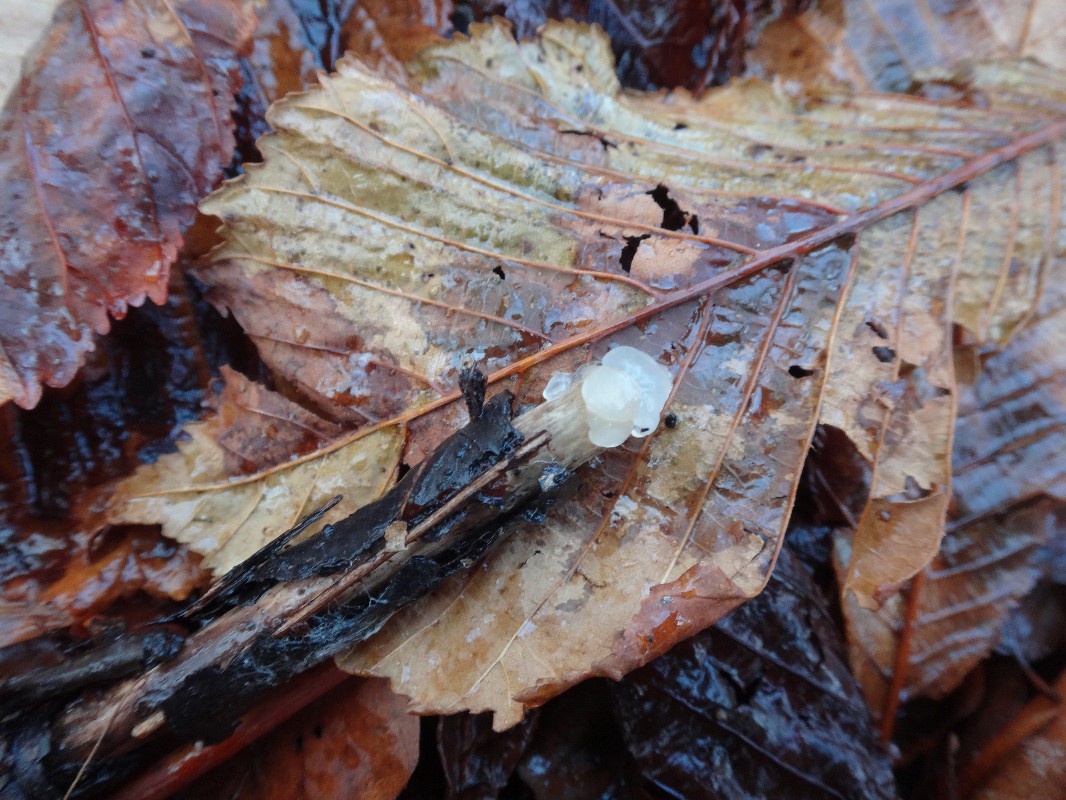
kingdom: Fungi
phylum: Basidiomycota
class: Agaricomycetes
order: Auriculariales
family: Hyaloriaceae
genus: Myxarium
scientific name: Myxarium nucleatum
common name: klar bævretop
